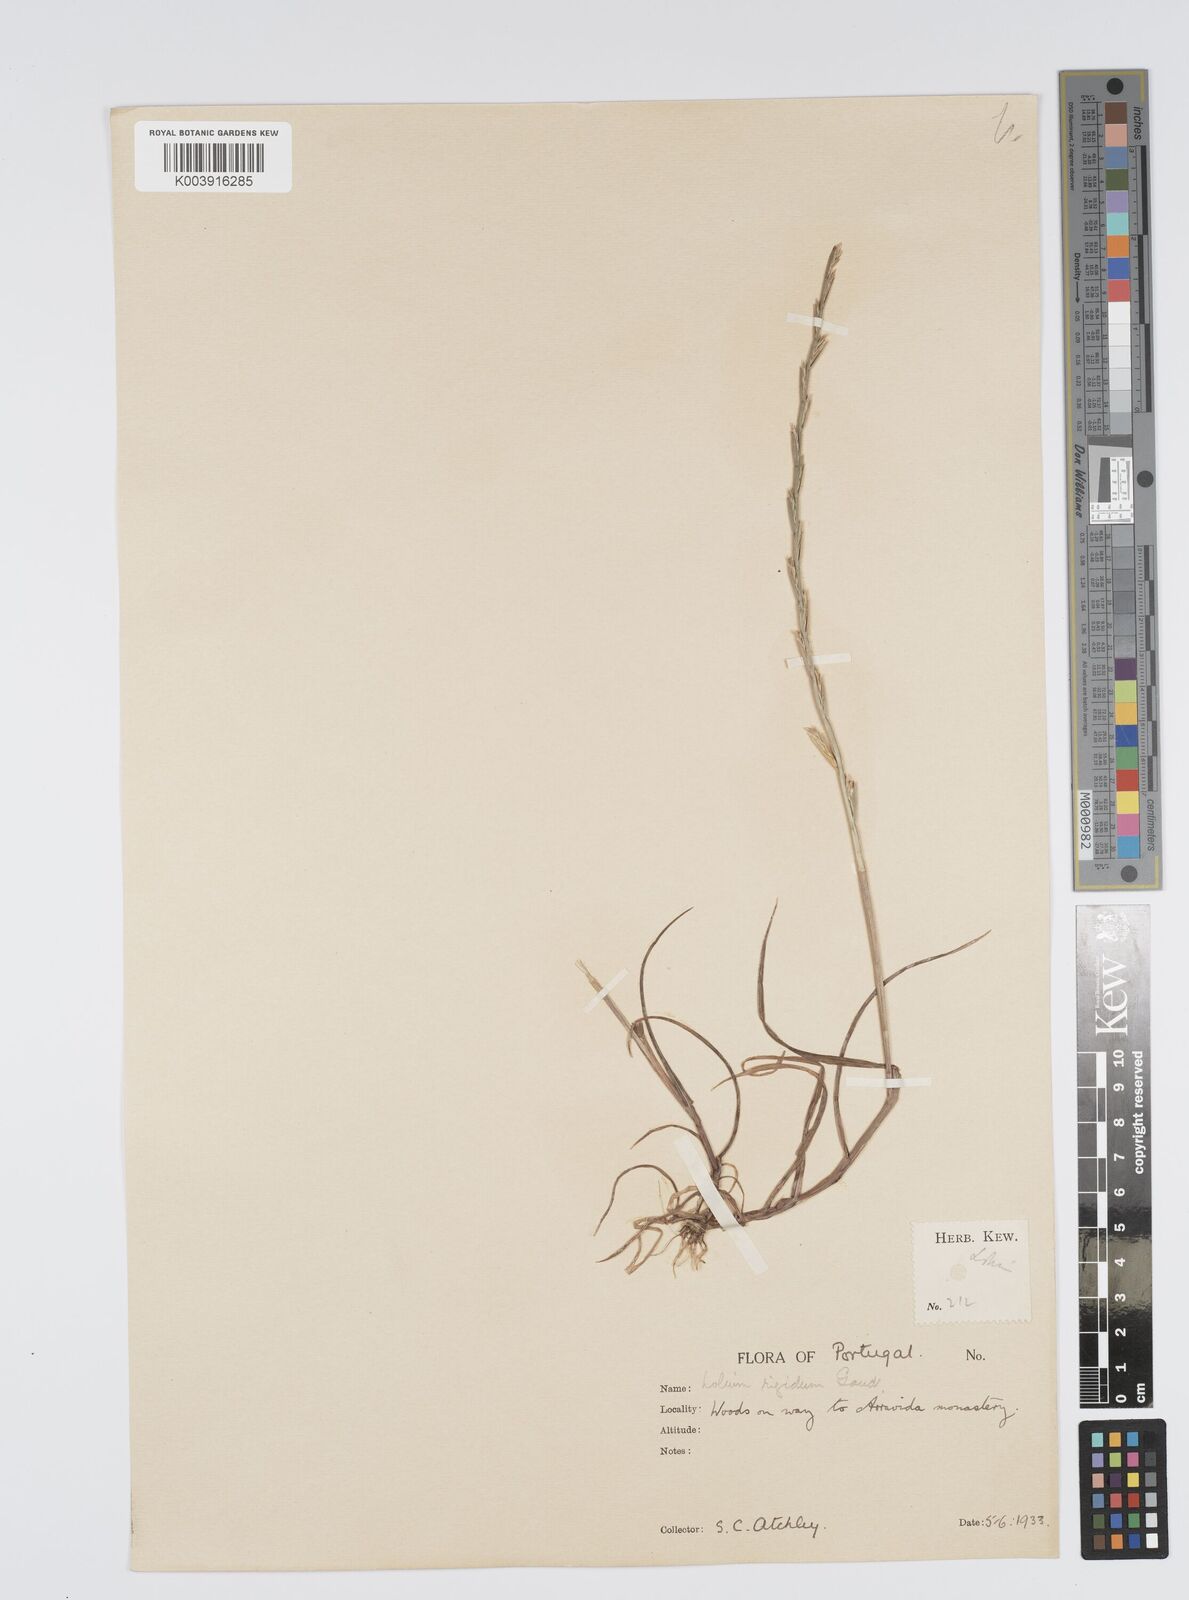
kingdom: Plantae
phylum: Tracheophyta
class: Liliopsida
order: Poales
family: Poaceae
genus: Lolium
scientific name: Lolium rigidum
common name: Wimmera ryegrass
